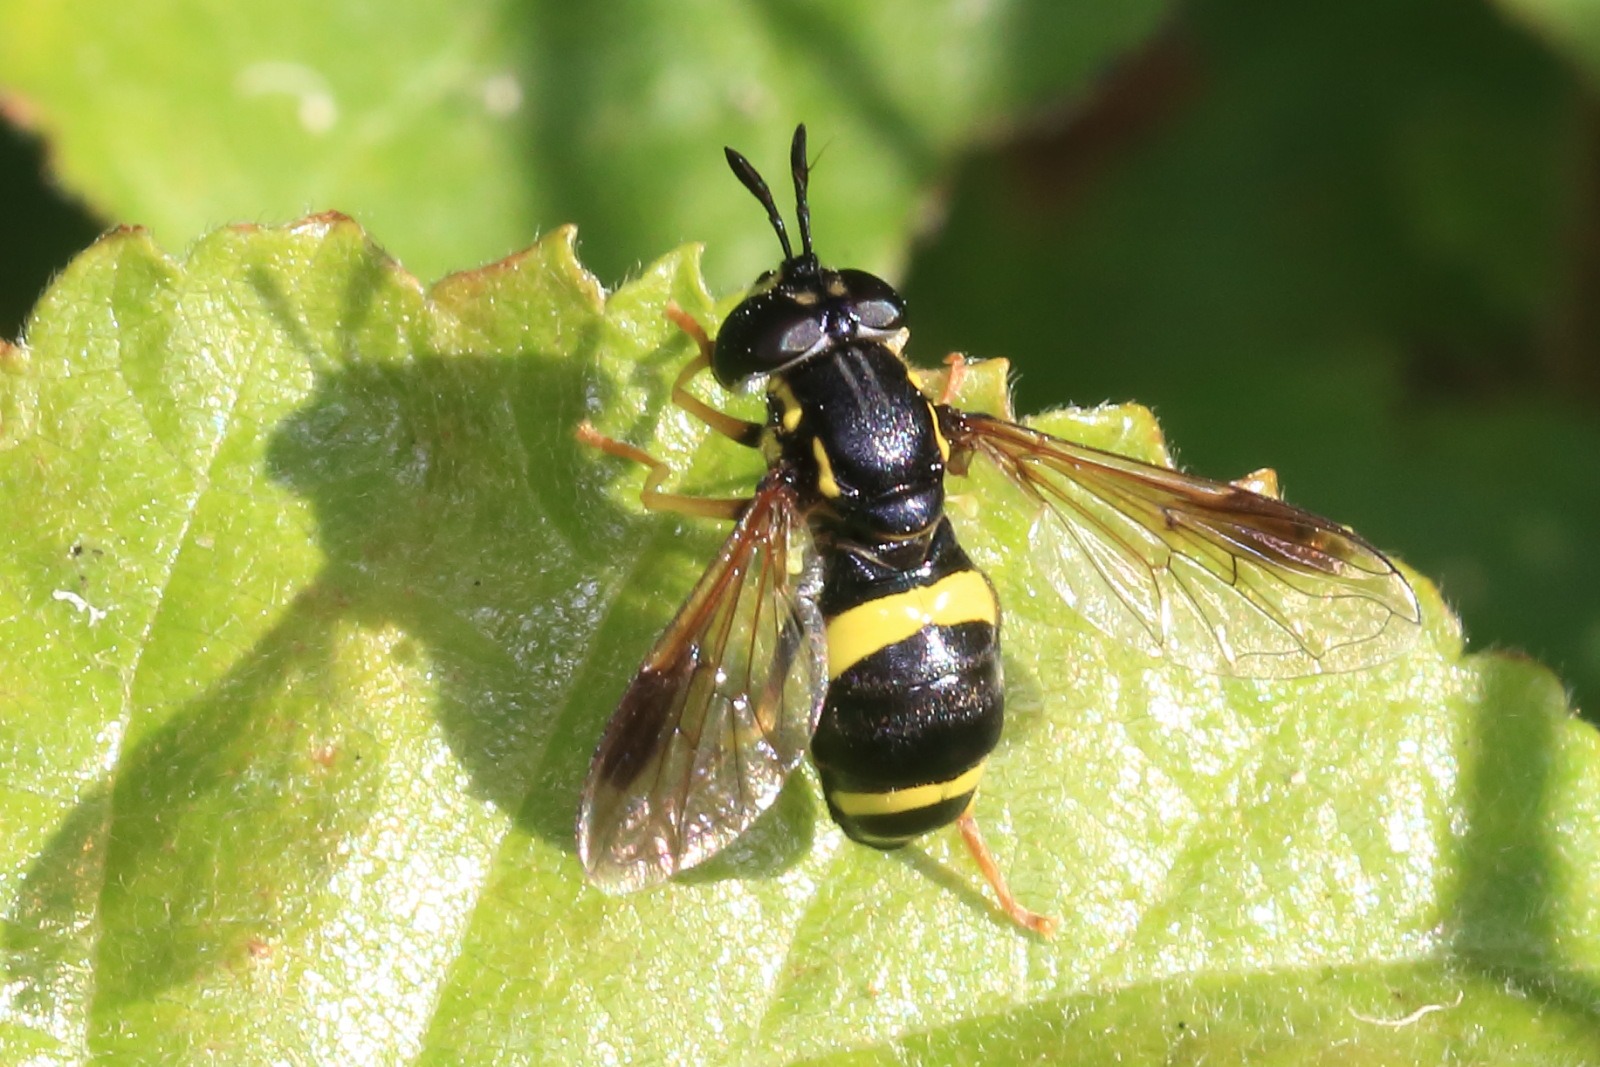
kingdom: Animalia
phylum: Arthropoda
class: Insecta
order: Diptera
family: Syrphidae
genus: Chrysotoxum
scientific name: Chrysotoxum bicincta
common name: Tobåndet hvepsesvirreflue
